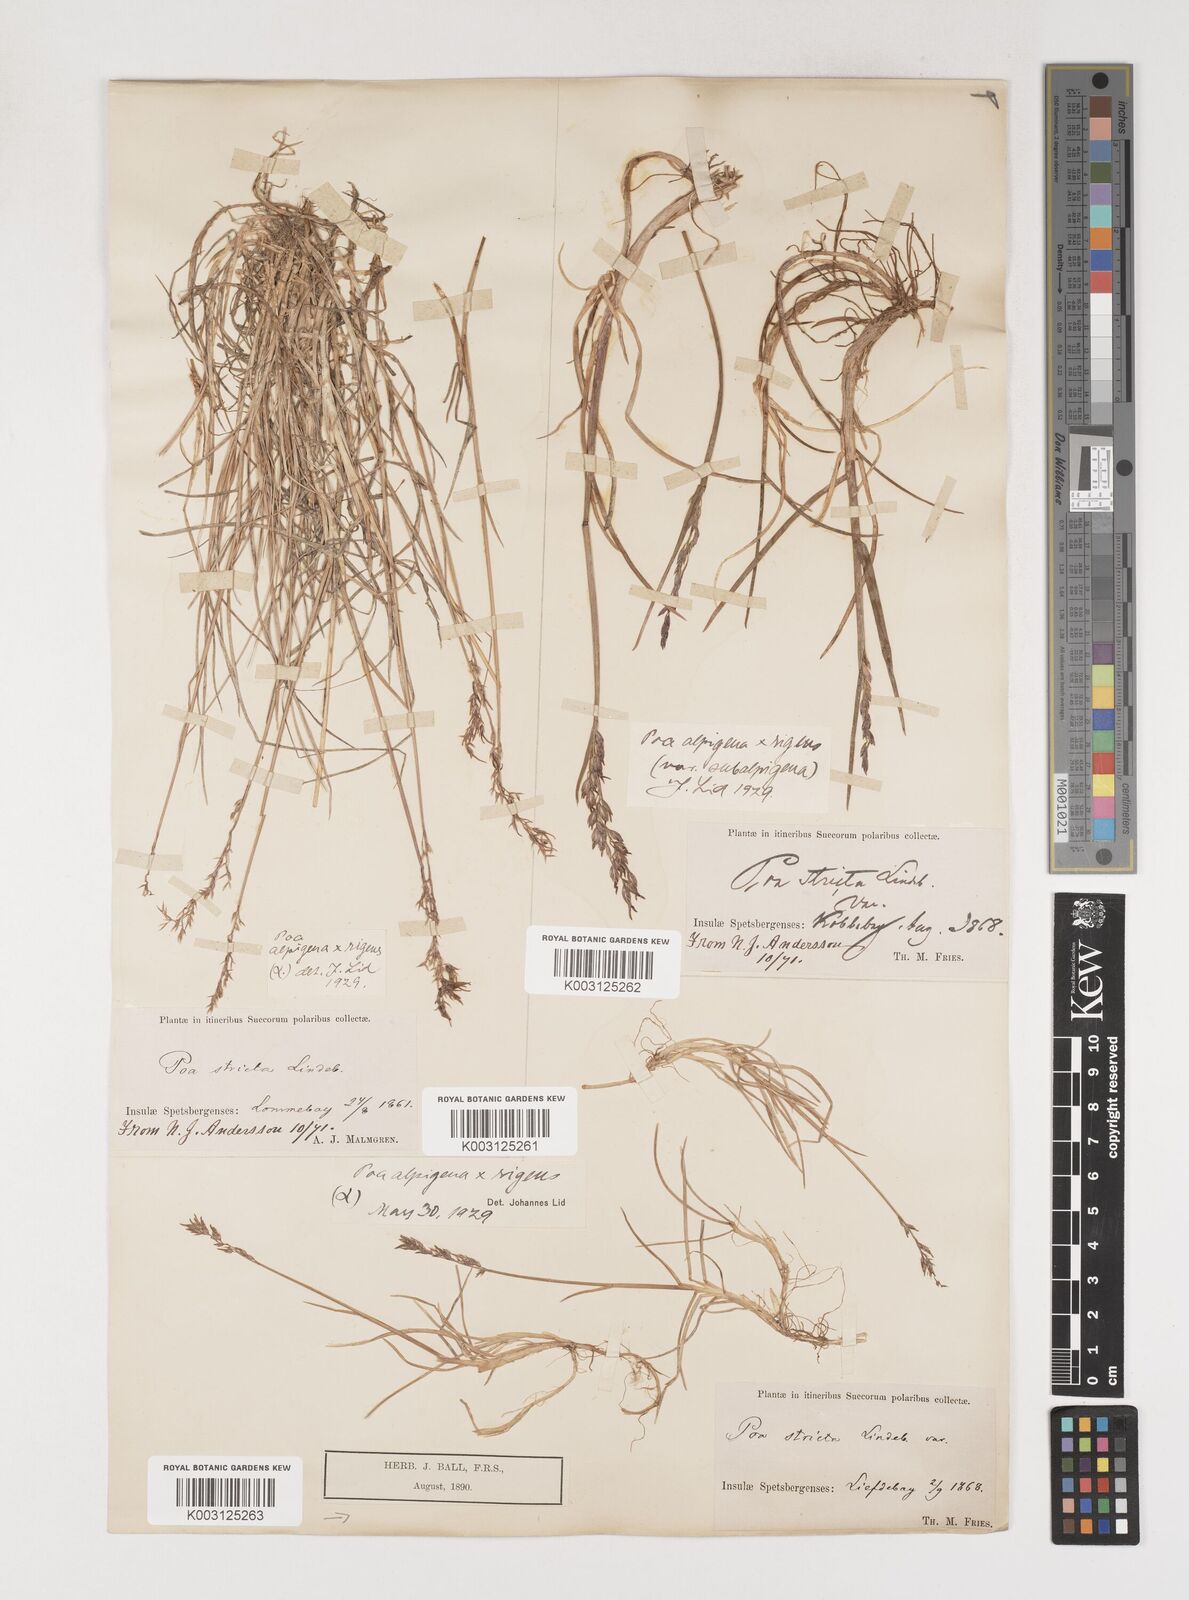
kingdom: Plantae
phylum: Tracheophyta
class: Liliopsida
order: Poales
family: Poaceae
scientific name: Poaceae
